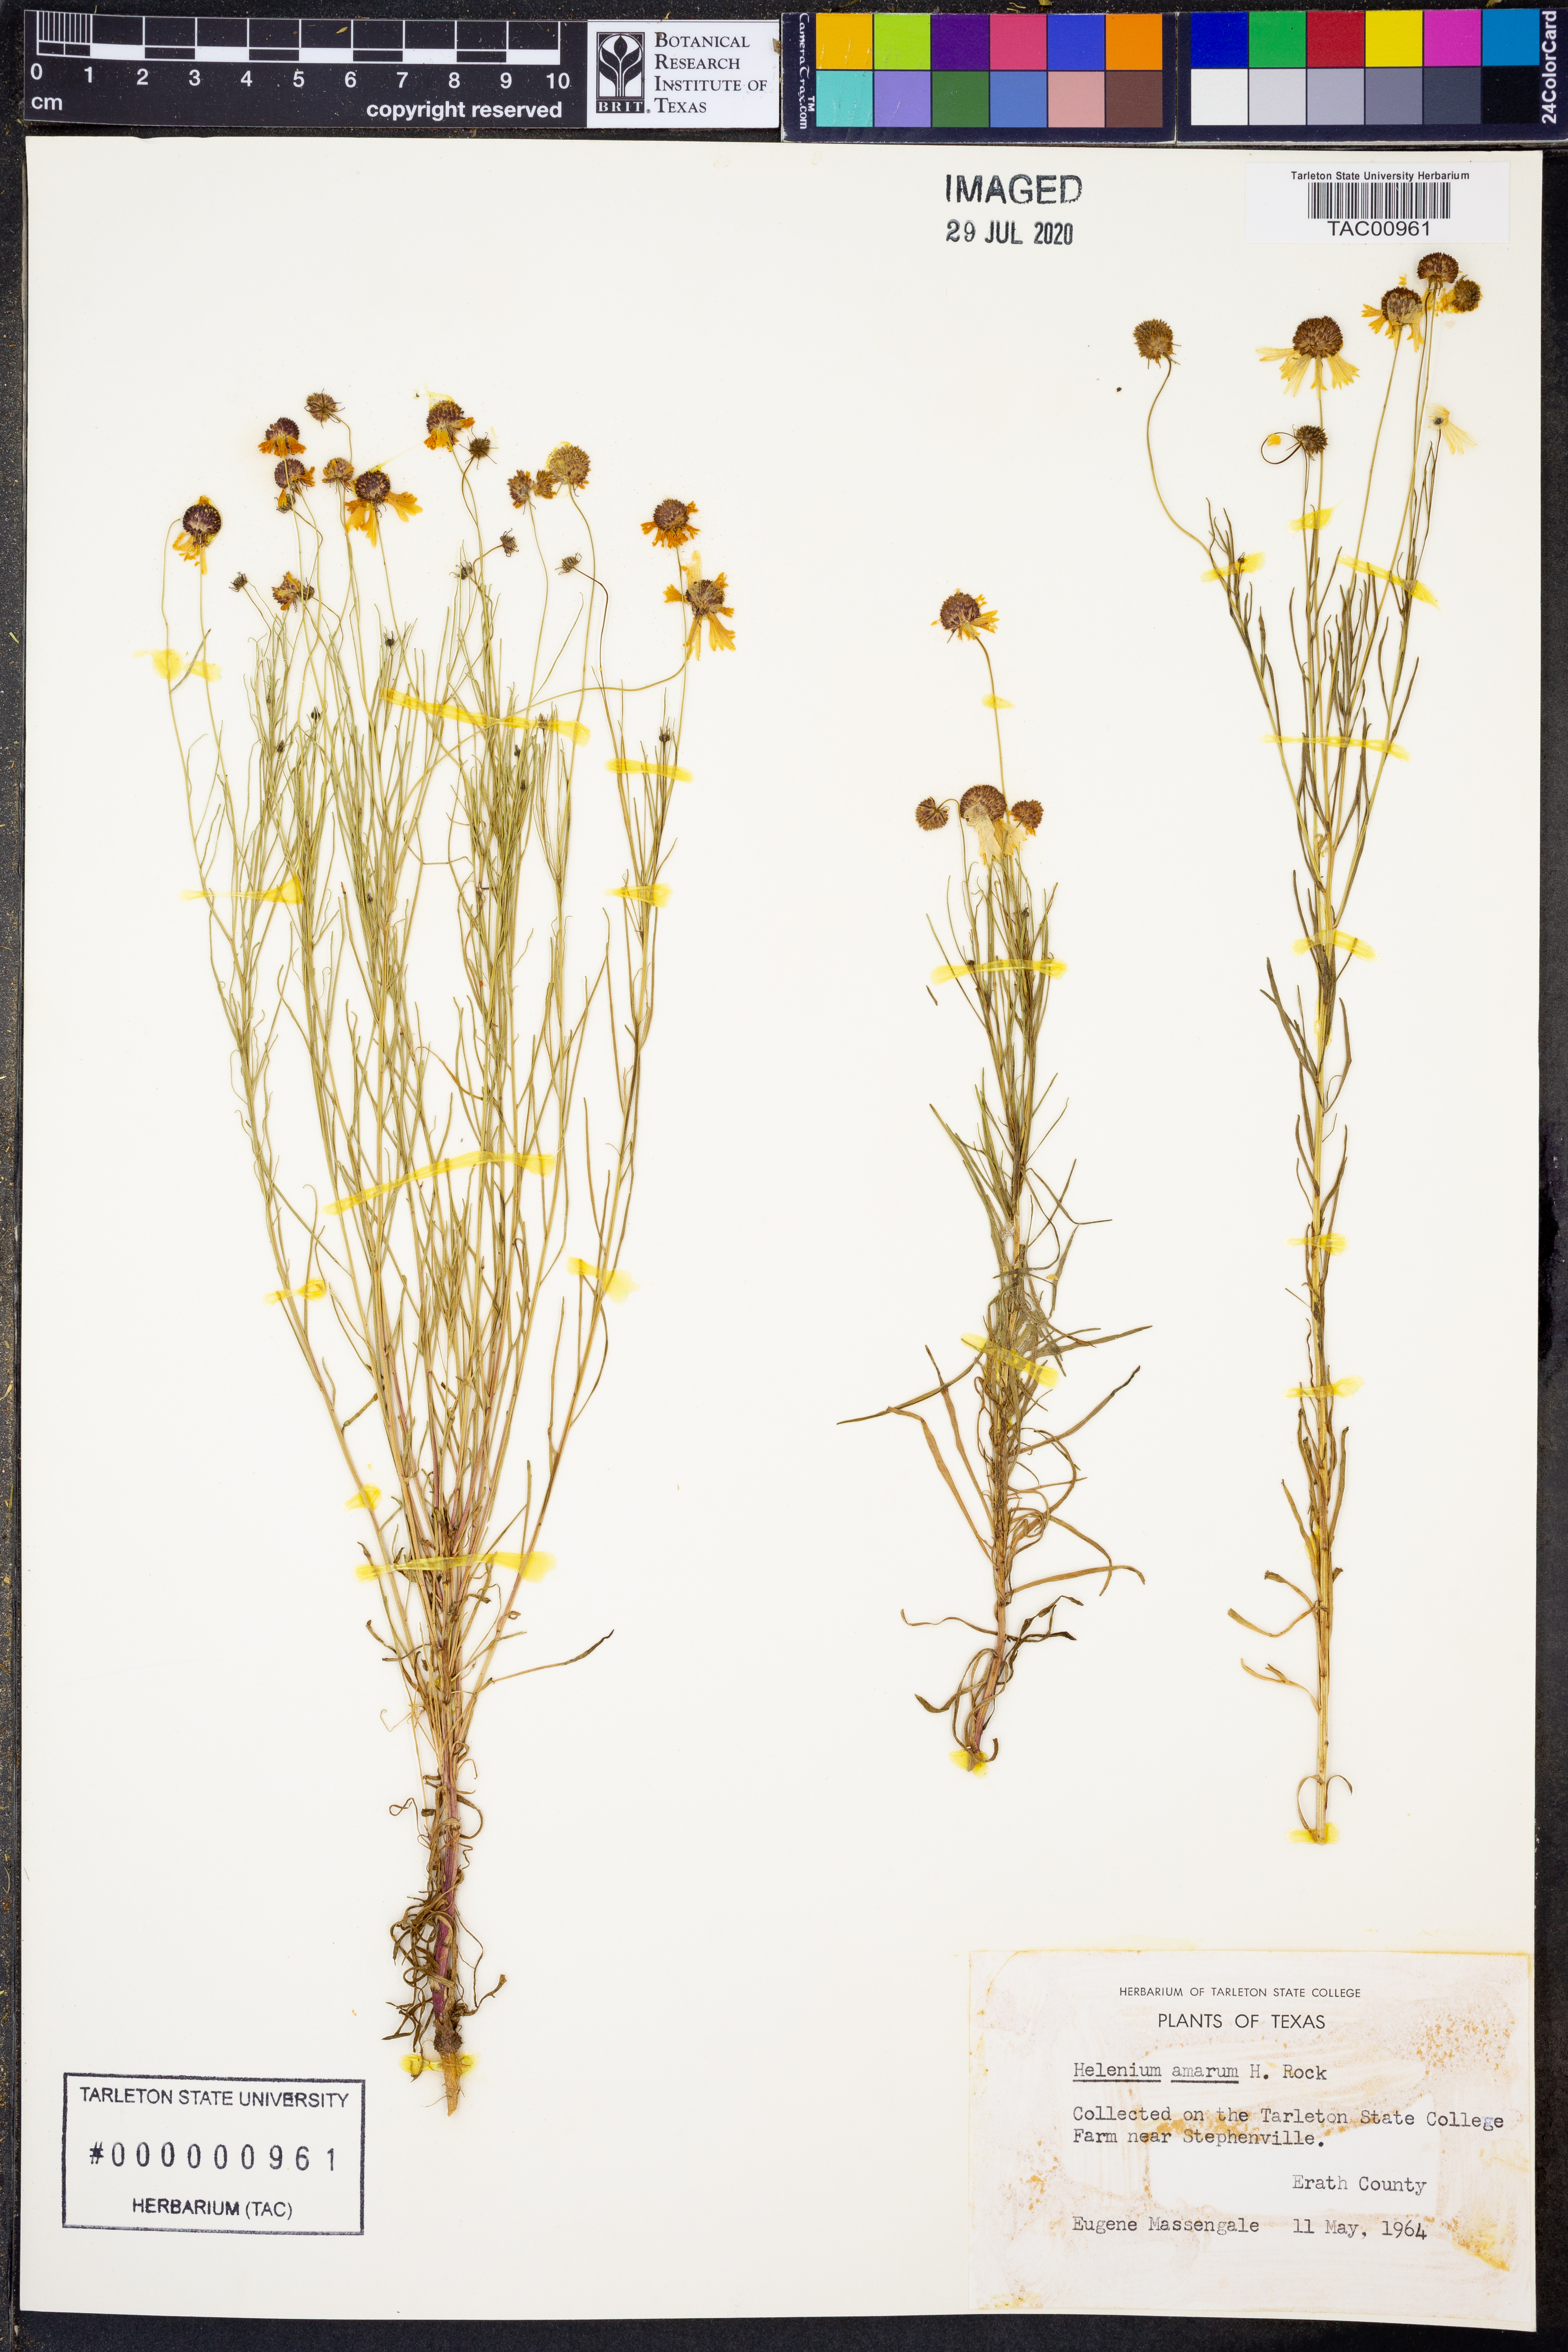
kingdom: Plantae
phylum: Tracheophyta
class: Magnoliopsida
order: Asterales
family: Asteraceae
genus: Helenium
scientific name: Helenium amarum
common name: Bitter sneezeweed
